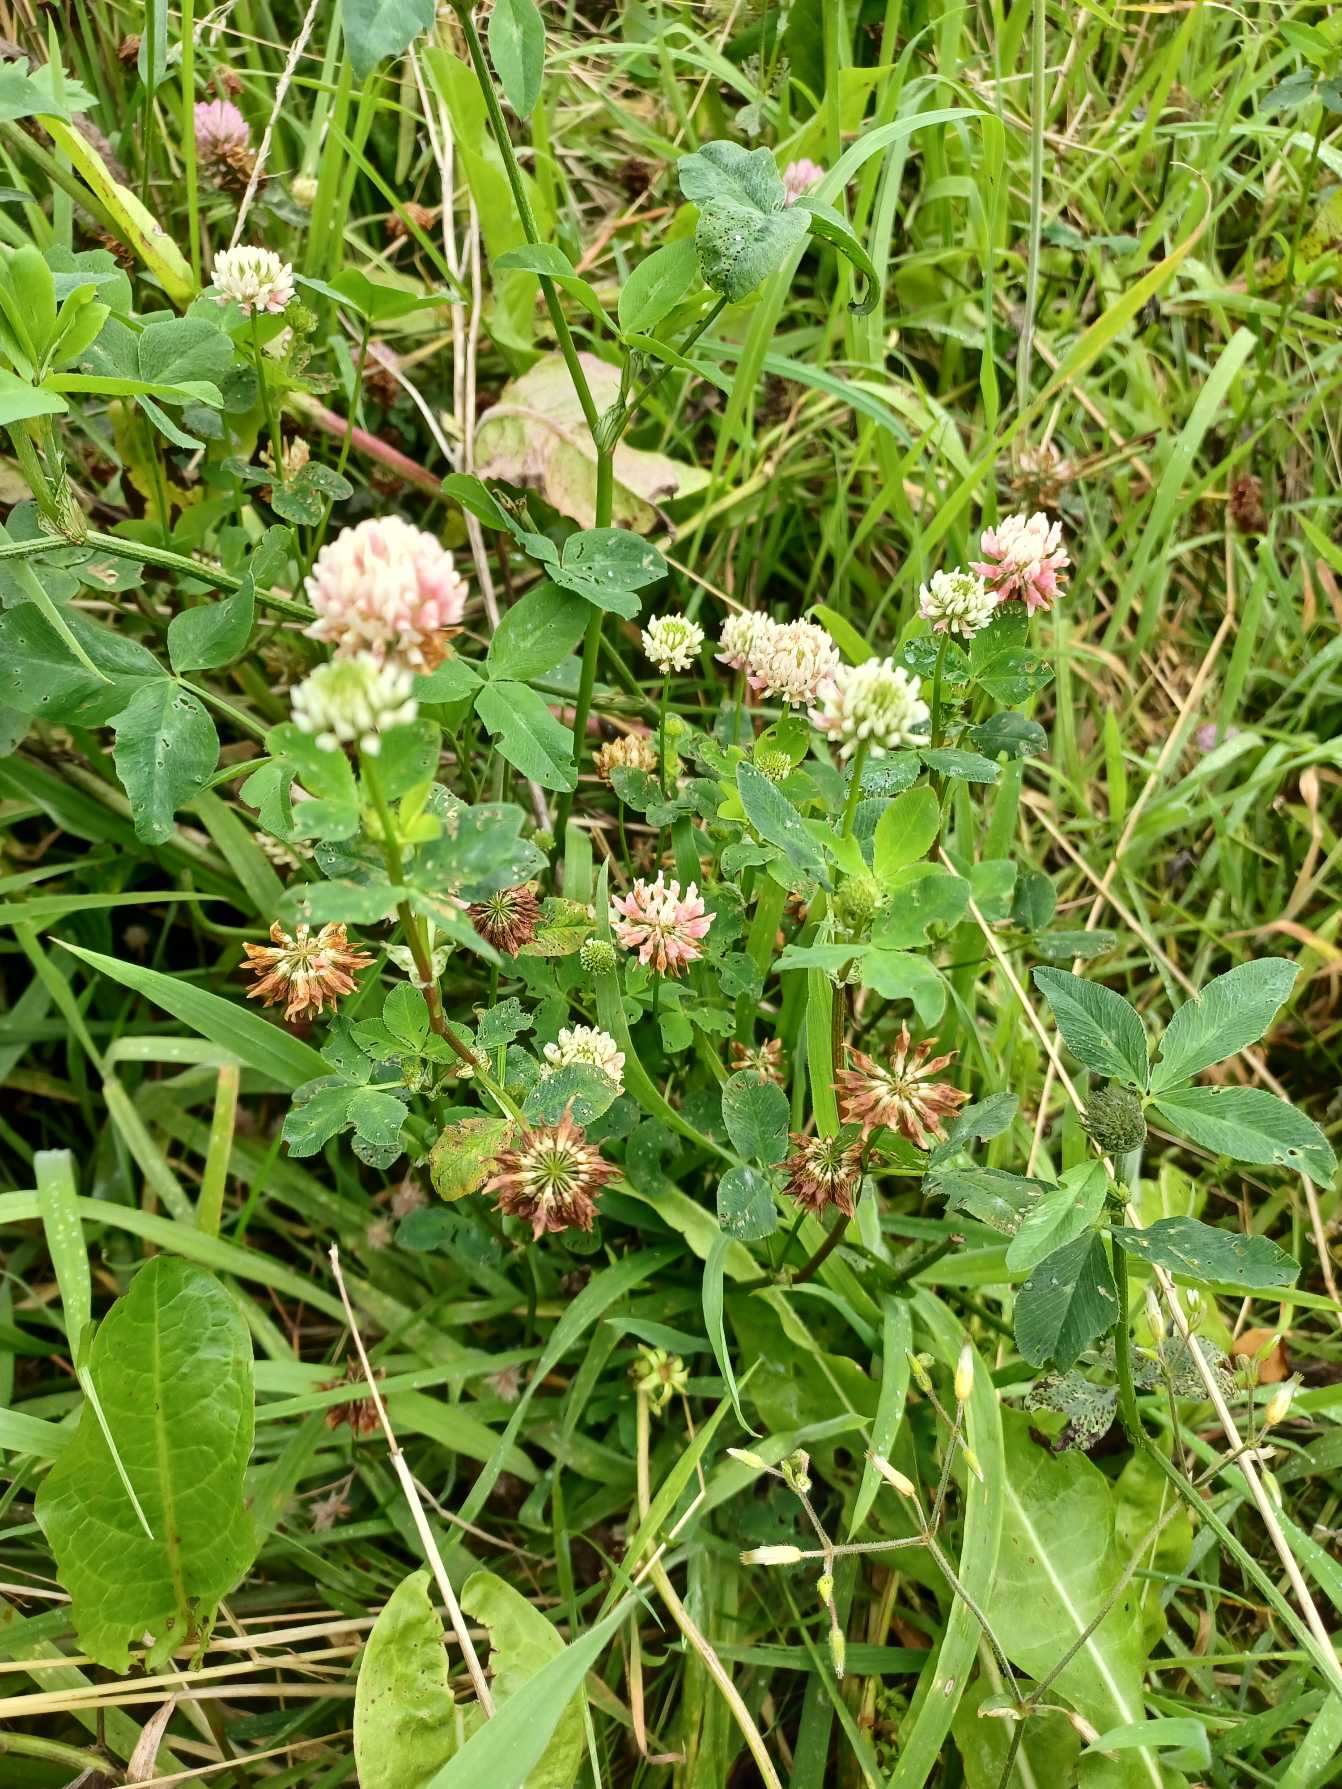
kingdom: Plantae
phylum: Tracheophyta
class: Magnoliopsida
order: Fabales
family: Fabaceae
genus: Trifolium
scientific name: Trifolium hybridum
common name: Alsike-kløver
